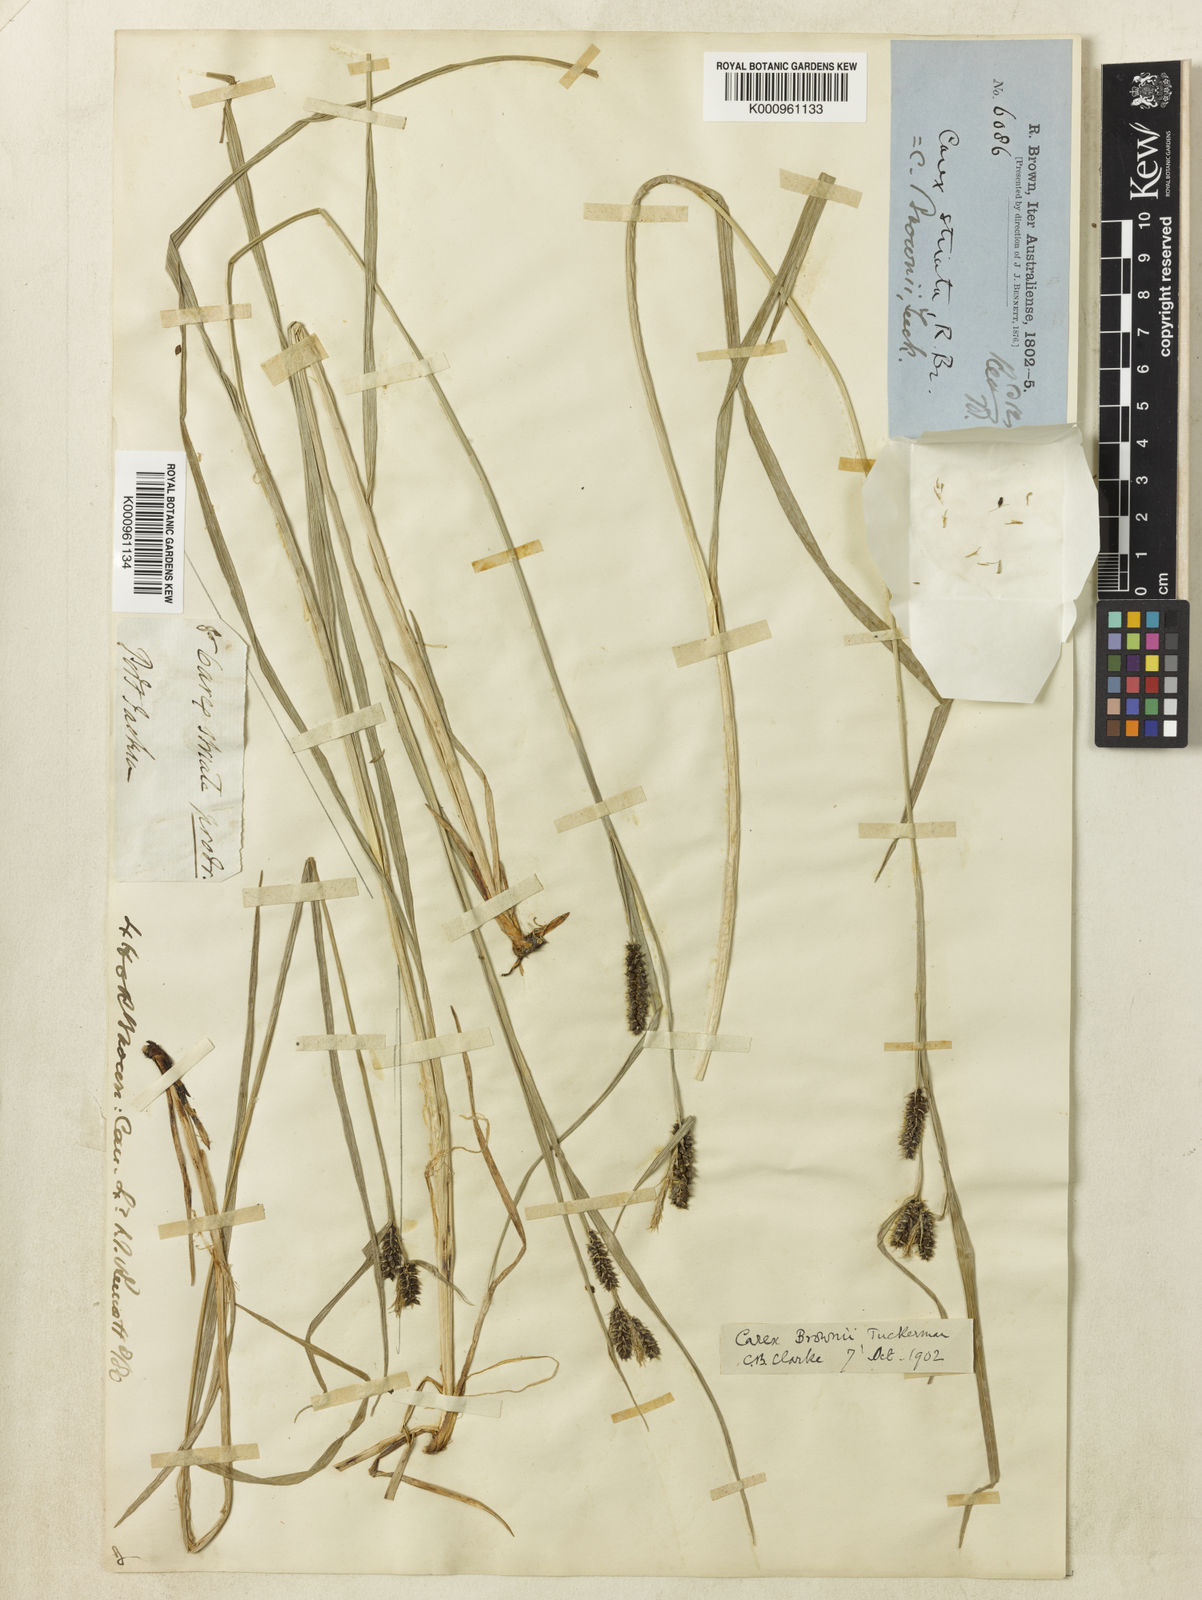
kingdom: Plantae
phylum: Tracheophyta
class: Liliopsida
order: Poales
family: Cyperaceae
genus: Carex
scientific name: Carex brownii
